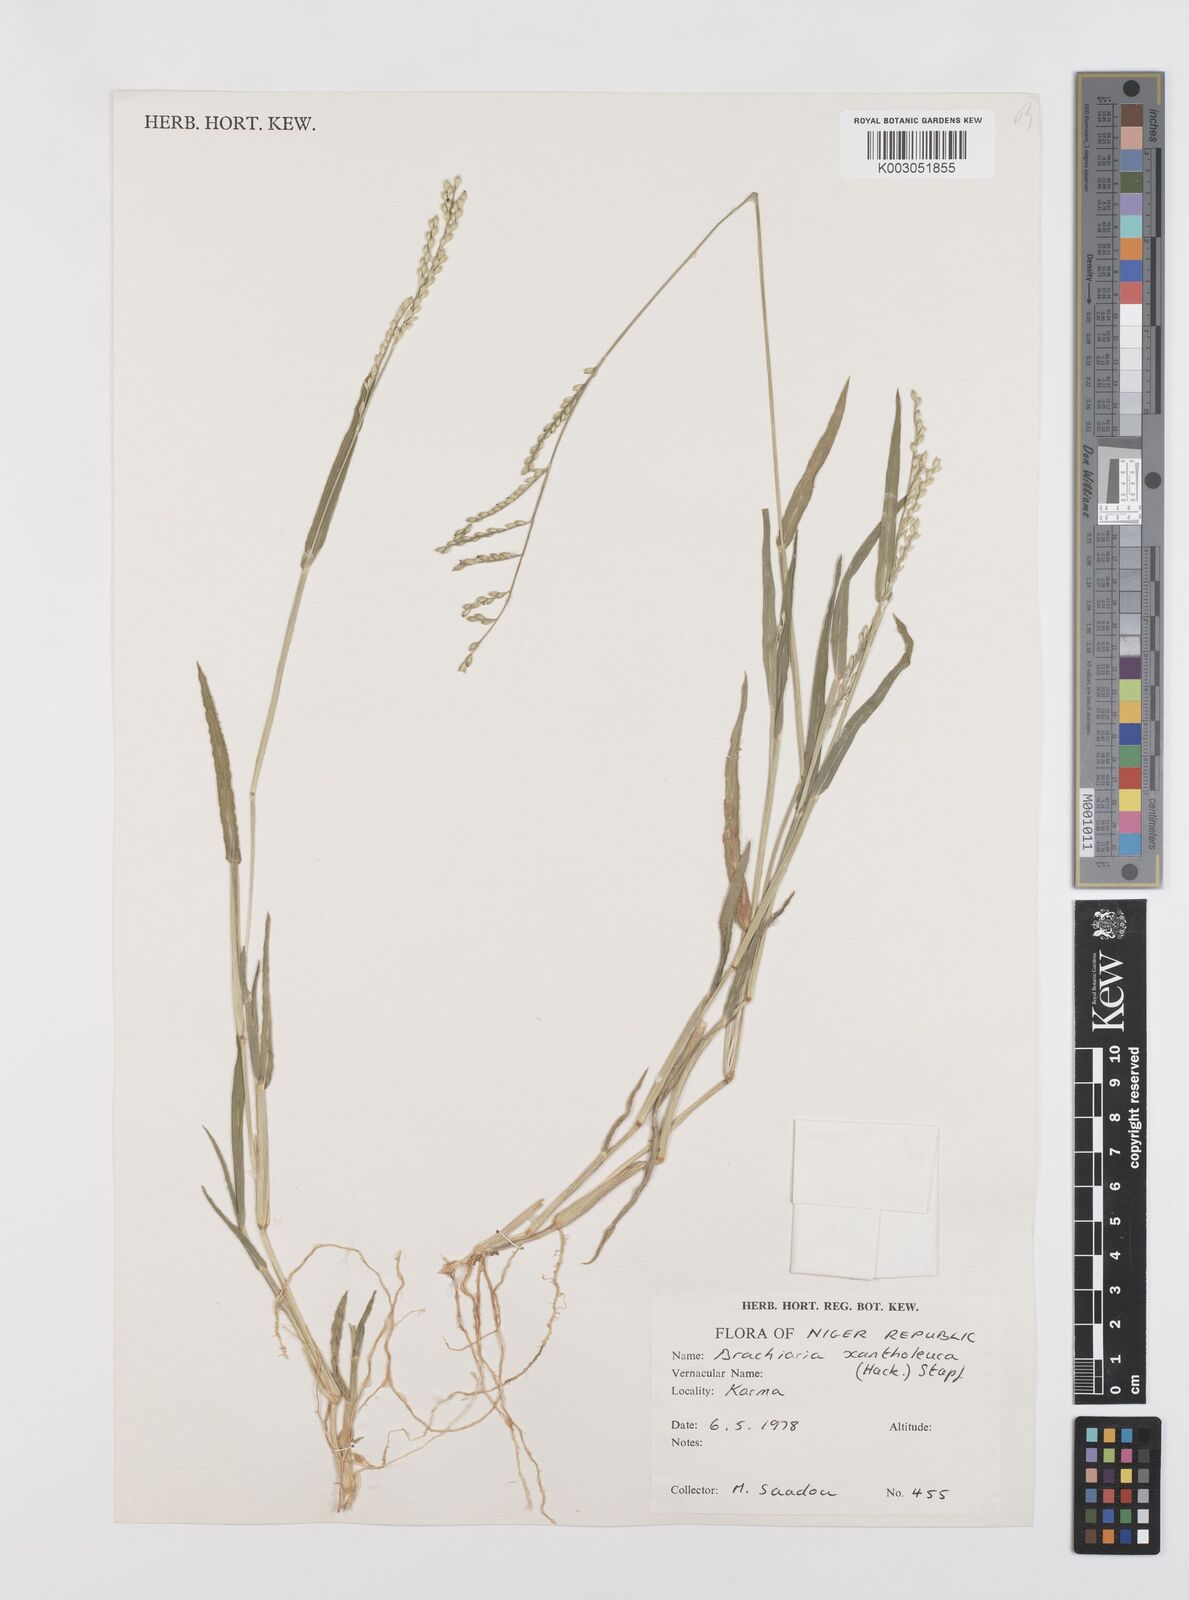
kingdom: Plantae
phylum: Tracheophyta
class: Liliopsida
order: Poales
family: Poaceae
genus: Urochloa
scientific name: Urochloa xantholeuca
